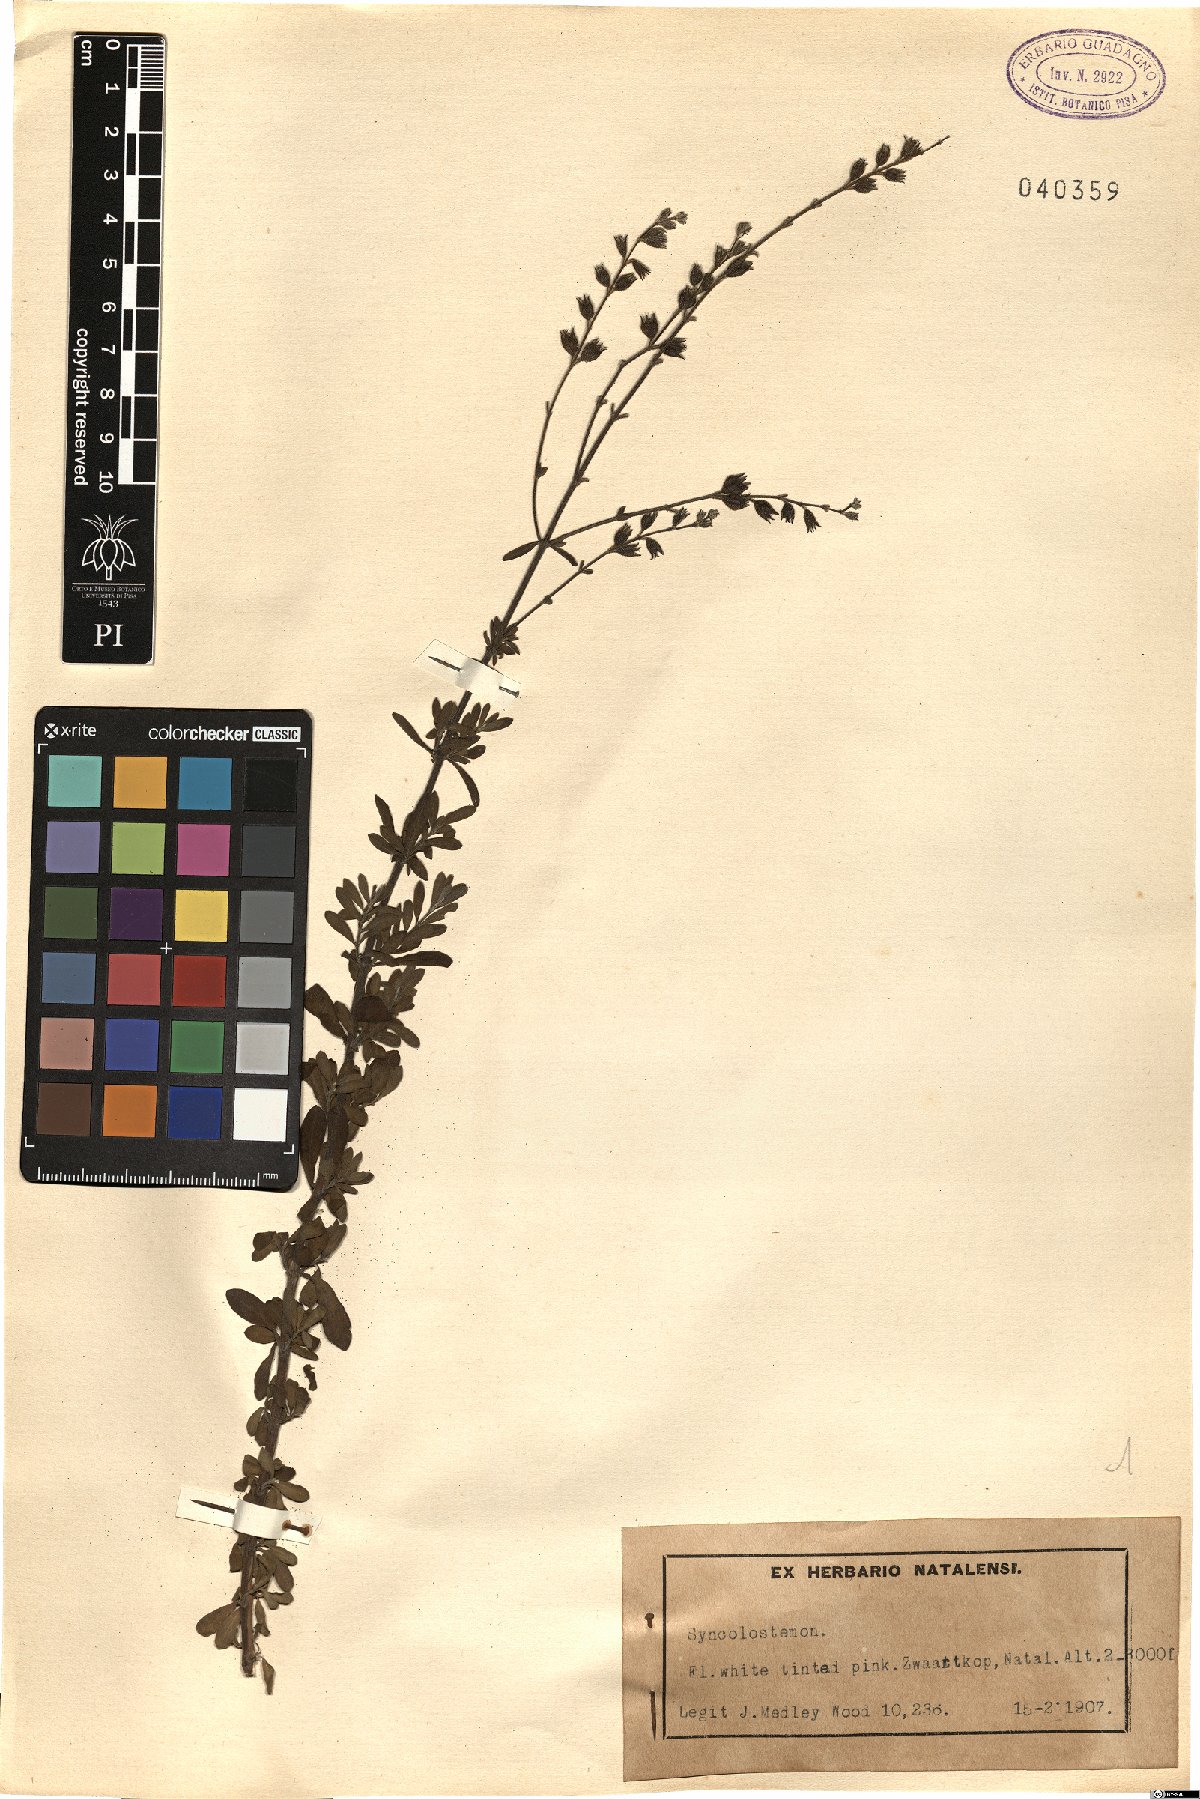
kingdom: Plantae
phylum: Tracheophyta
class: Magnoliopsida
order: Lamiales
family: Lamiaceae
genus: Syncolostemon
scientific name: Syncolostemon
